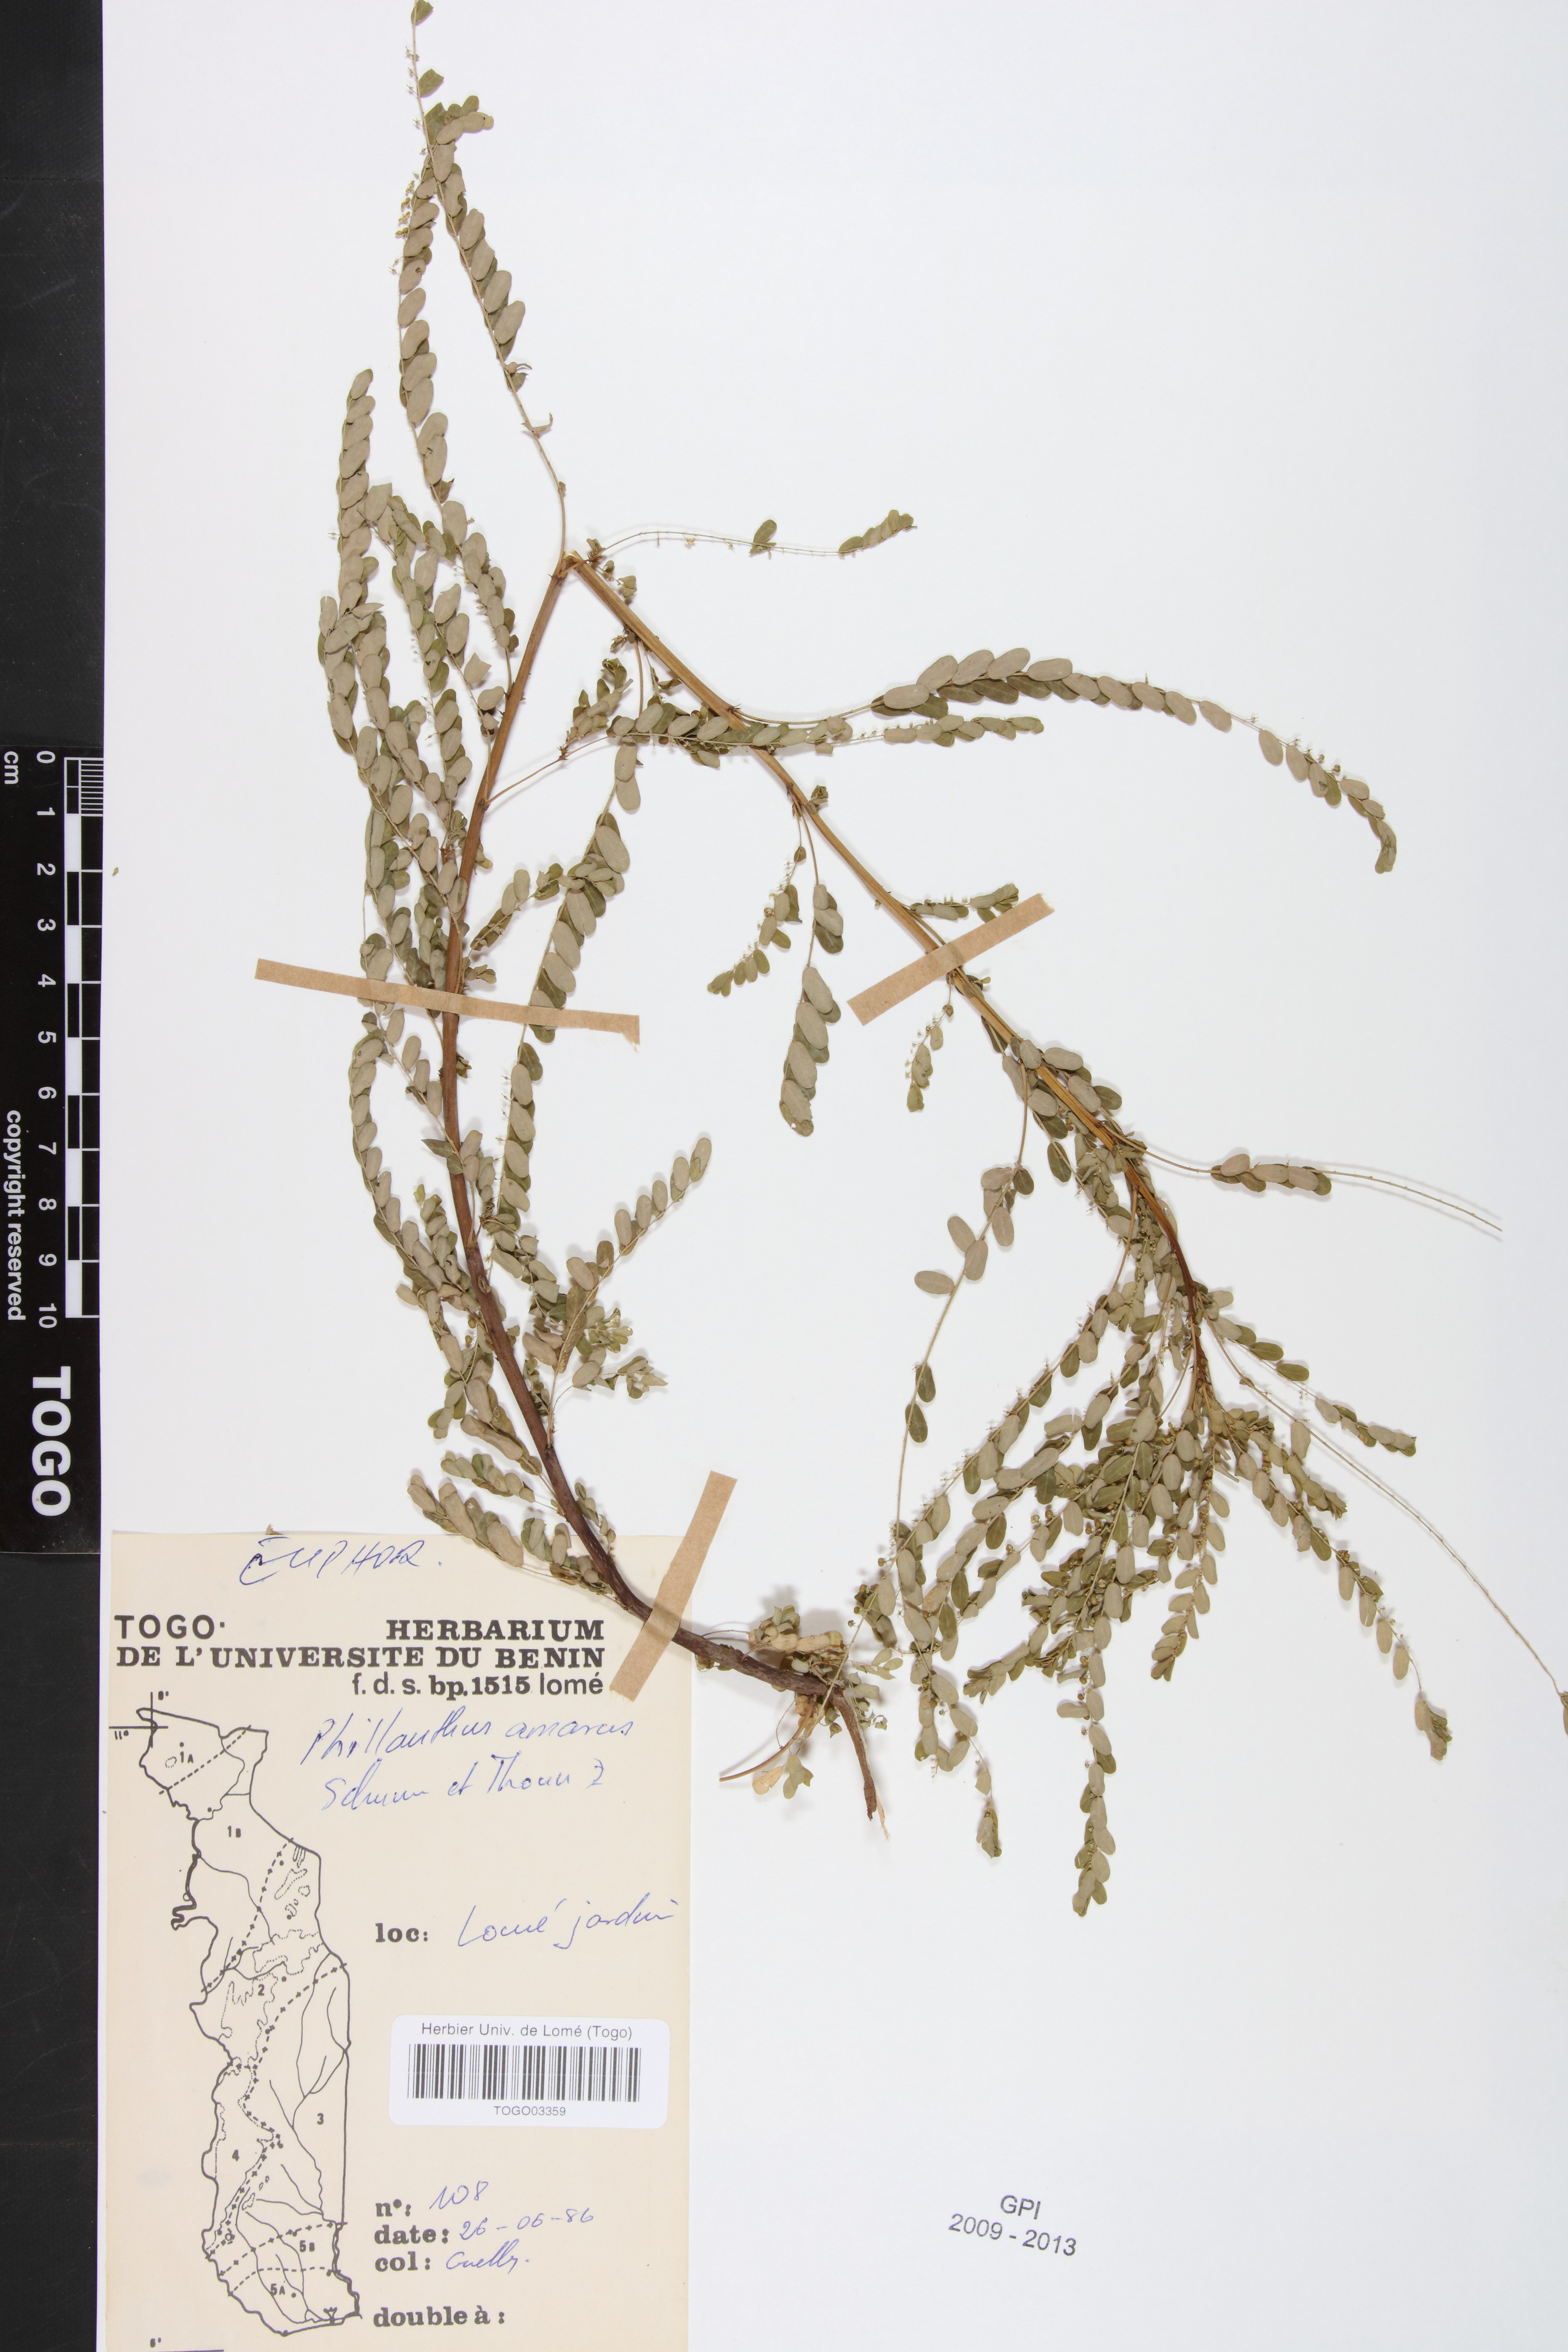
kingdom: Plantae
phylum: Tracheophyta
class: Magnoliopsida
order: Malpighiales
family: Phyllanthaceae
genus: Phyllanthus
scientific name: Phyllanthus amarus
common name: Carry me seed
